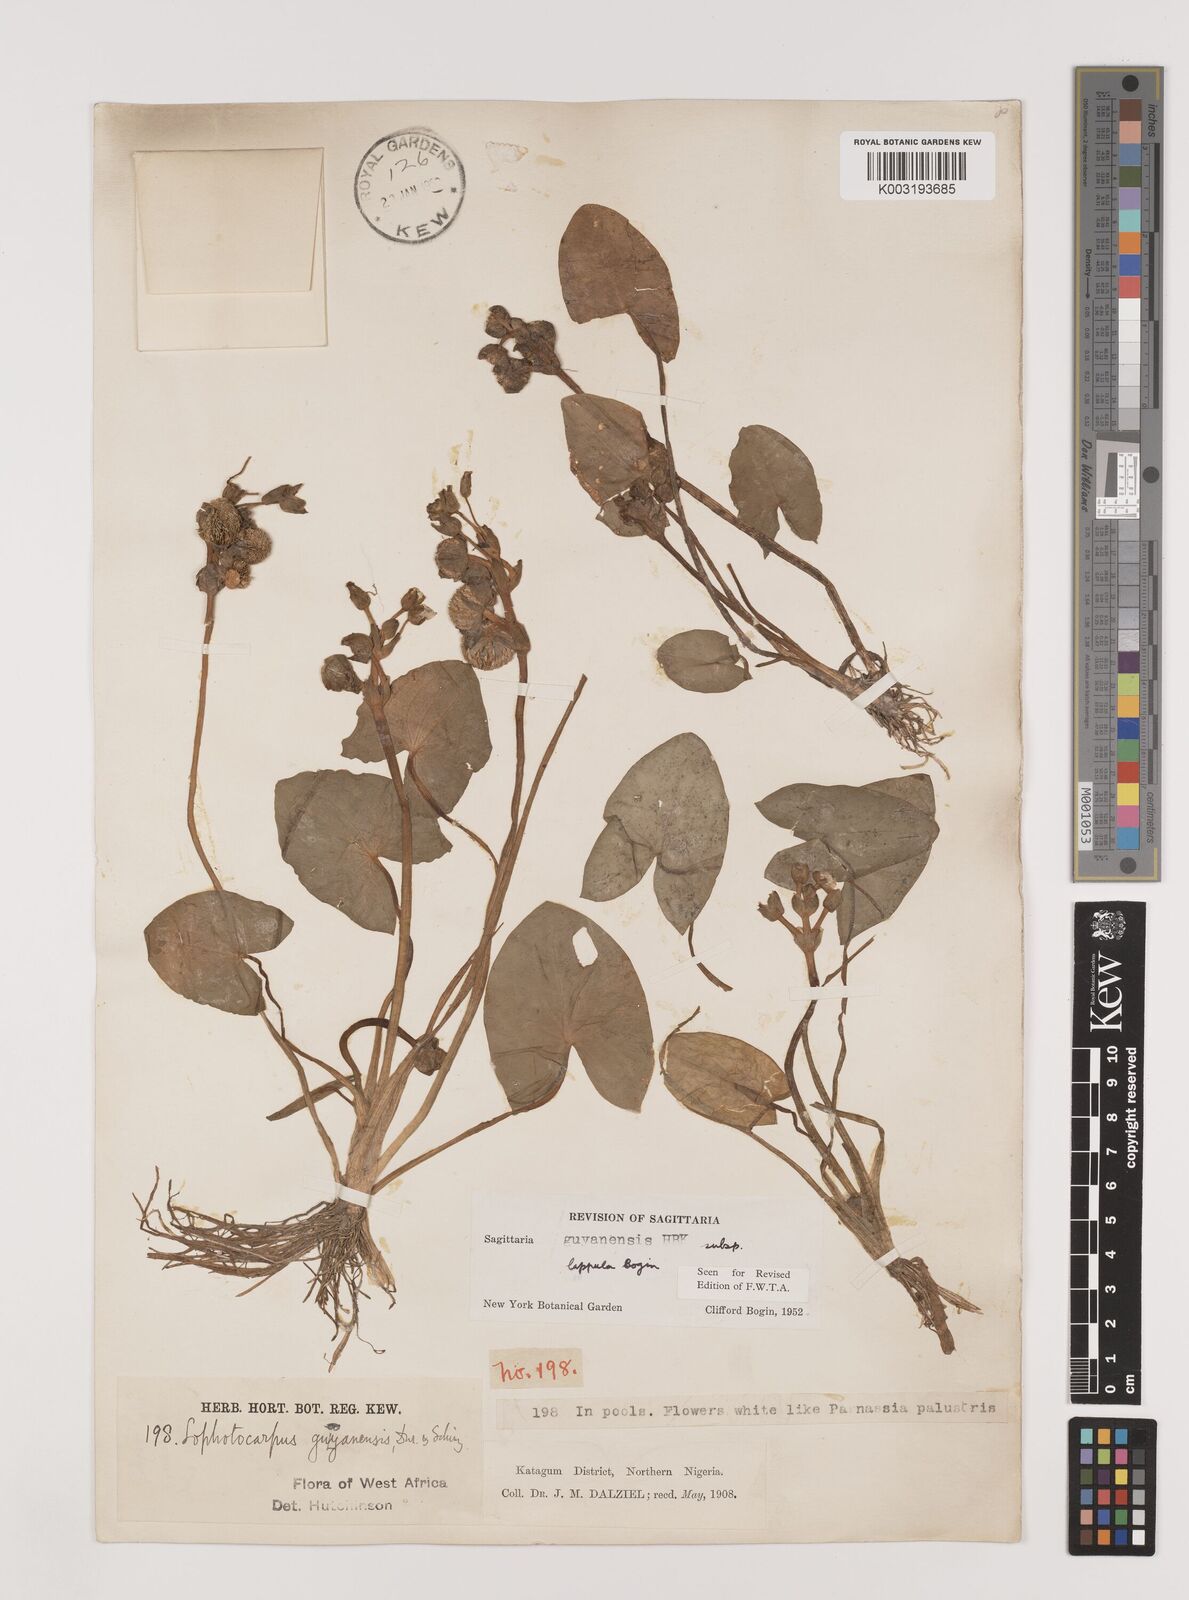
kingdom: Plantae
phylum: Tracheophyta
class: Liliopsida
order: Alismatales
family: Alismataceae
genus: Sagittaria
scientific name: Sagittaria guayanensis
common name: Guyanese arrowhead
